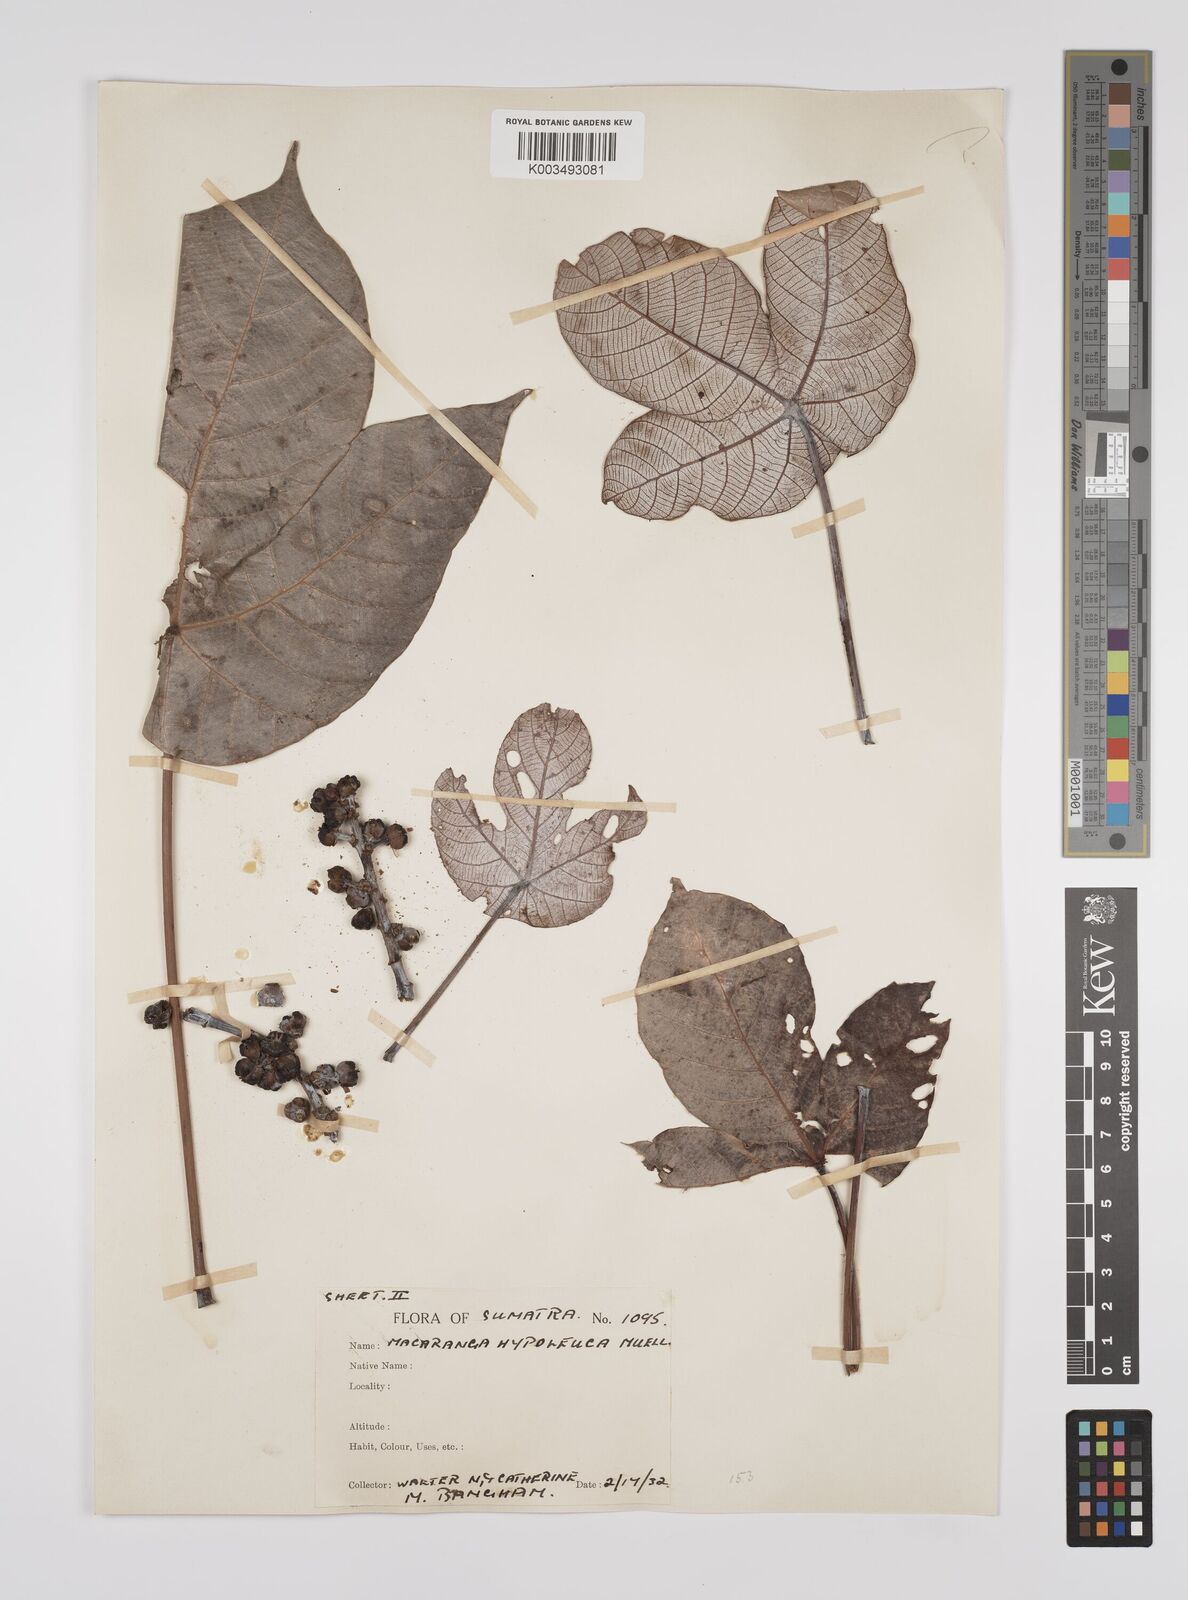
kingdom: Plantae
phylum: Tracheophyta
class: Magnoliopsida
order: Malpighiales
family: Euphorbiaceae
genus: Macaranga
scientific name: Macaranga hypoleuca
